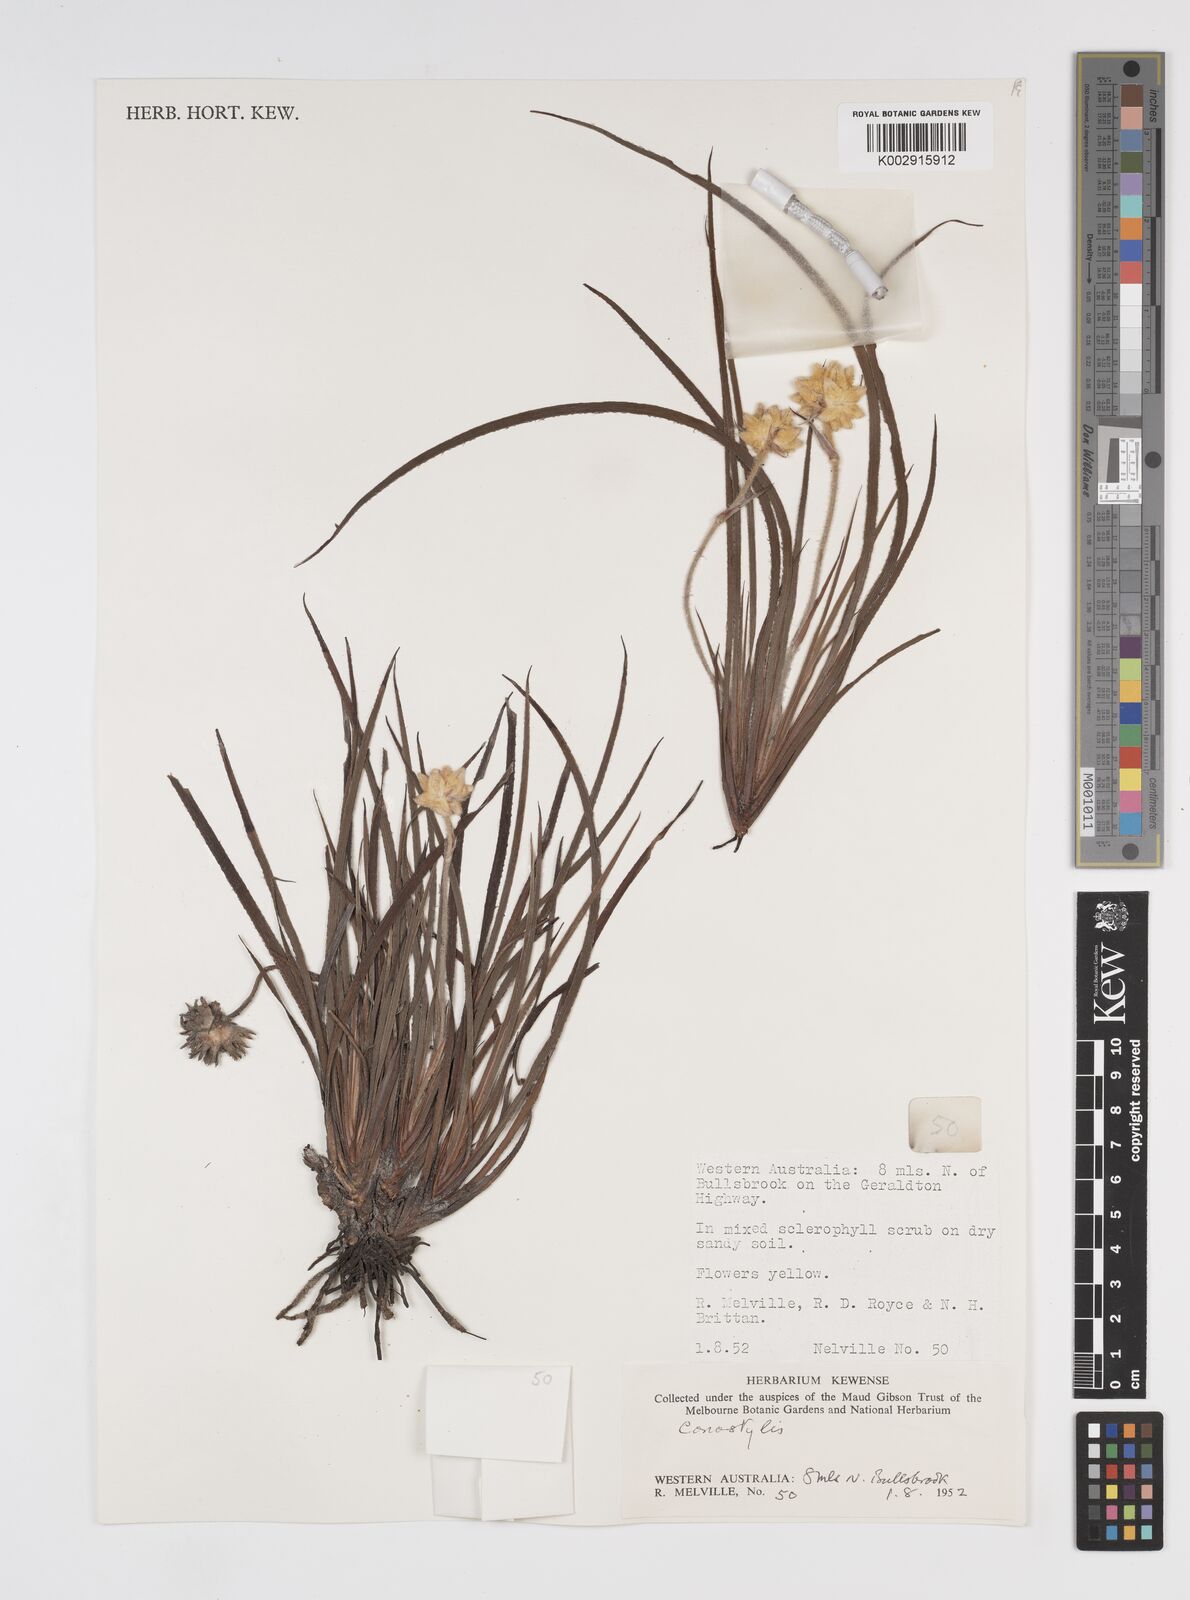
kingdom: Plantae
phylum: Tracheophyta
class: Liliopsida
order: Commelinales
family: Haemodoraceae
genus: Conostylis
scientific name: Conostylis
